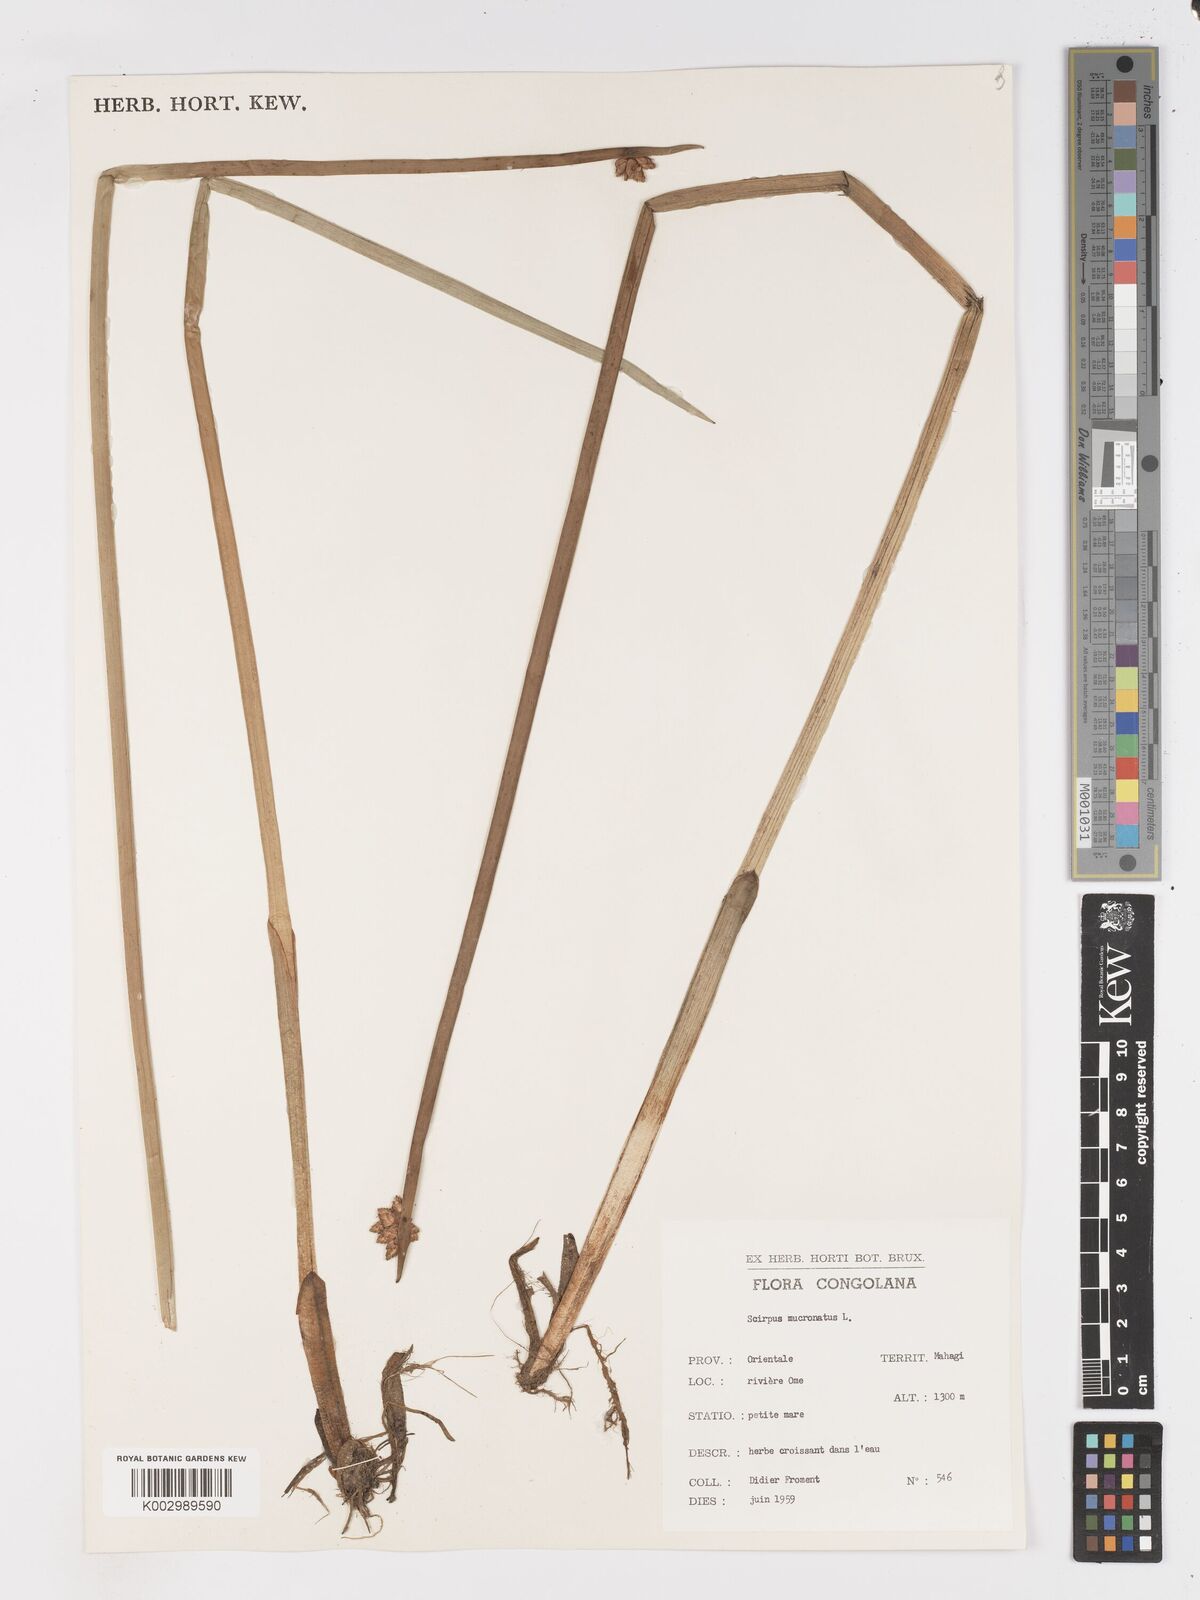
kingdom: Plantae
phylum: Tracheophyta
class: Liliopsida
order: Poales
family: Cyperaceae
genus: Schoenoplectiella
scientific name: Schoenoplectiella mucronata
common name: Bog bulrush
